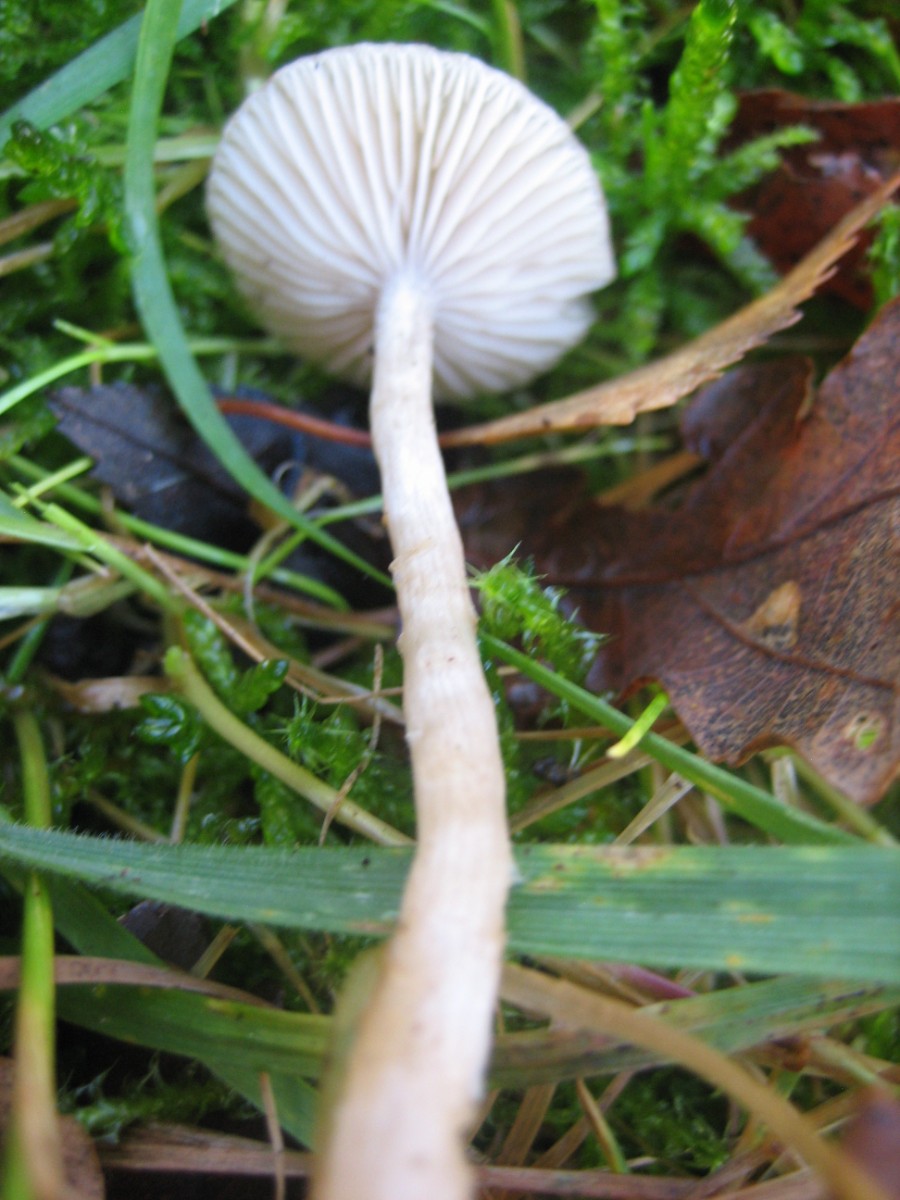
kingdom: Fungi
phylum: Basidiomycota
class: Agaricomycetes
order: Agaricales
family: Tricholomataceae
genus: Clitocybe
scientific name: Clitocybe
